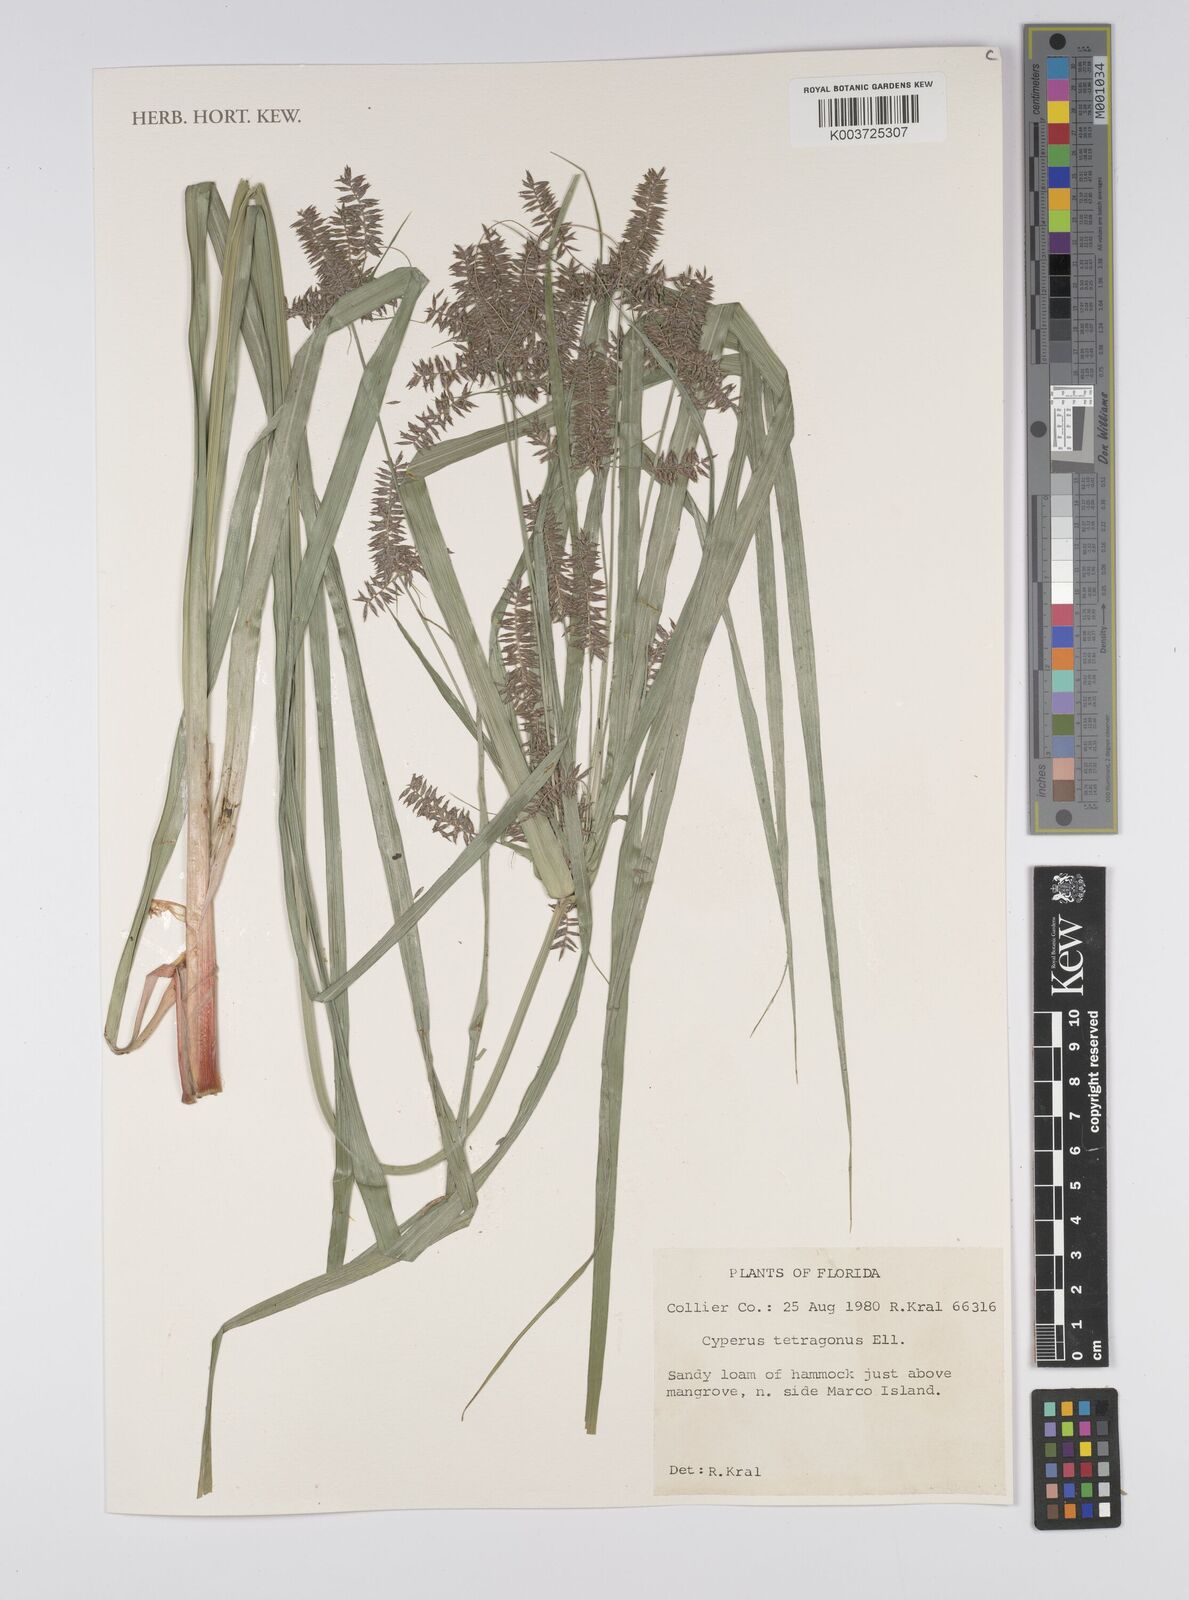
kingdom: Plantae
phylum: Tracheophyta
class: Liliopsida
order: Poales
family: Cyperaceae
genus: Cyperus
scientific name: Cyperus tetragonus
